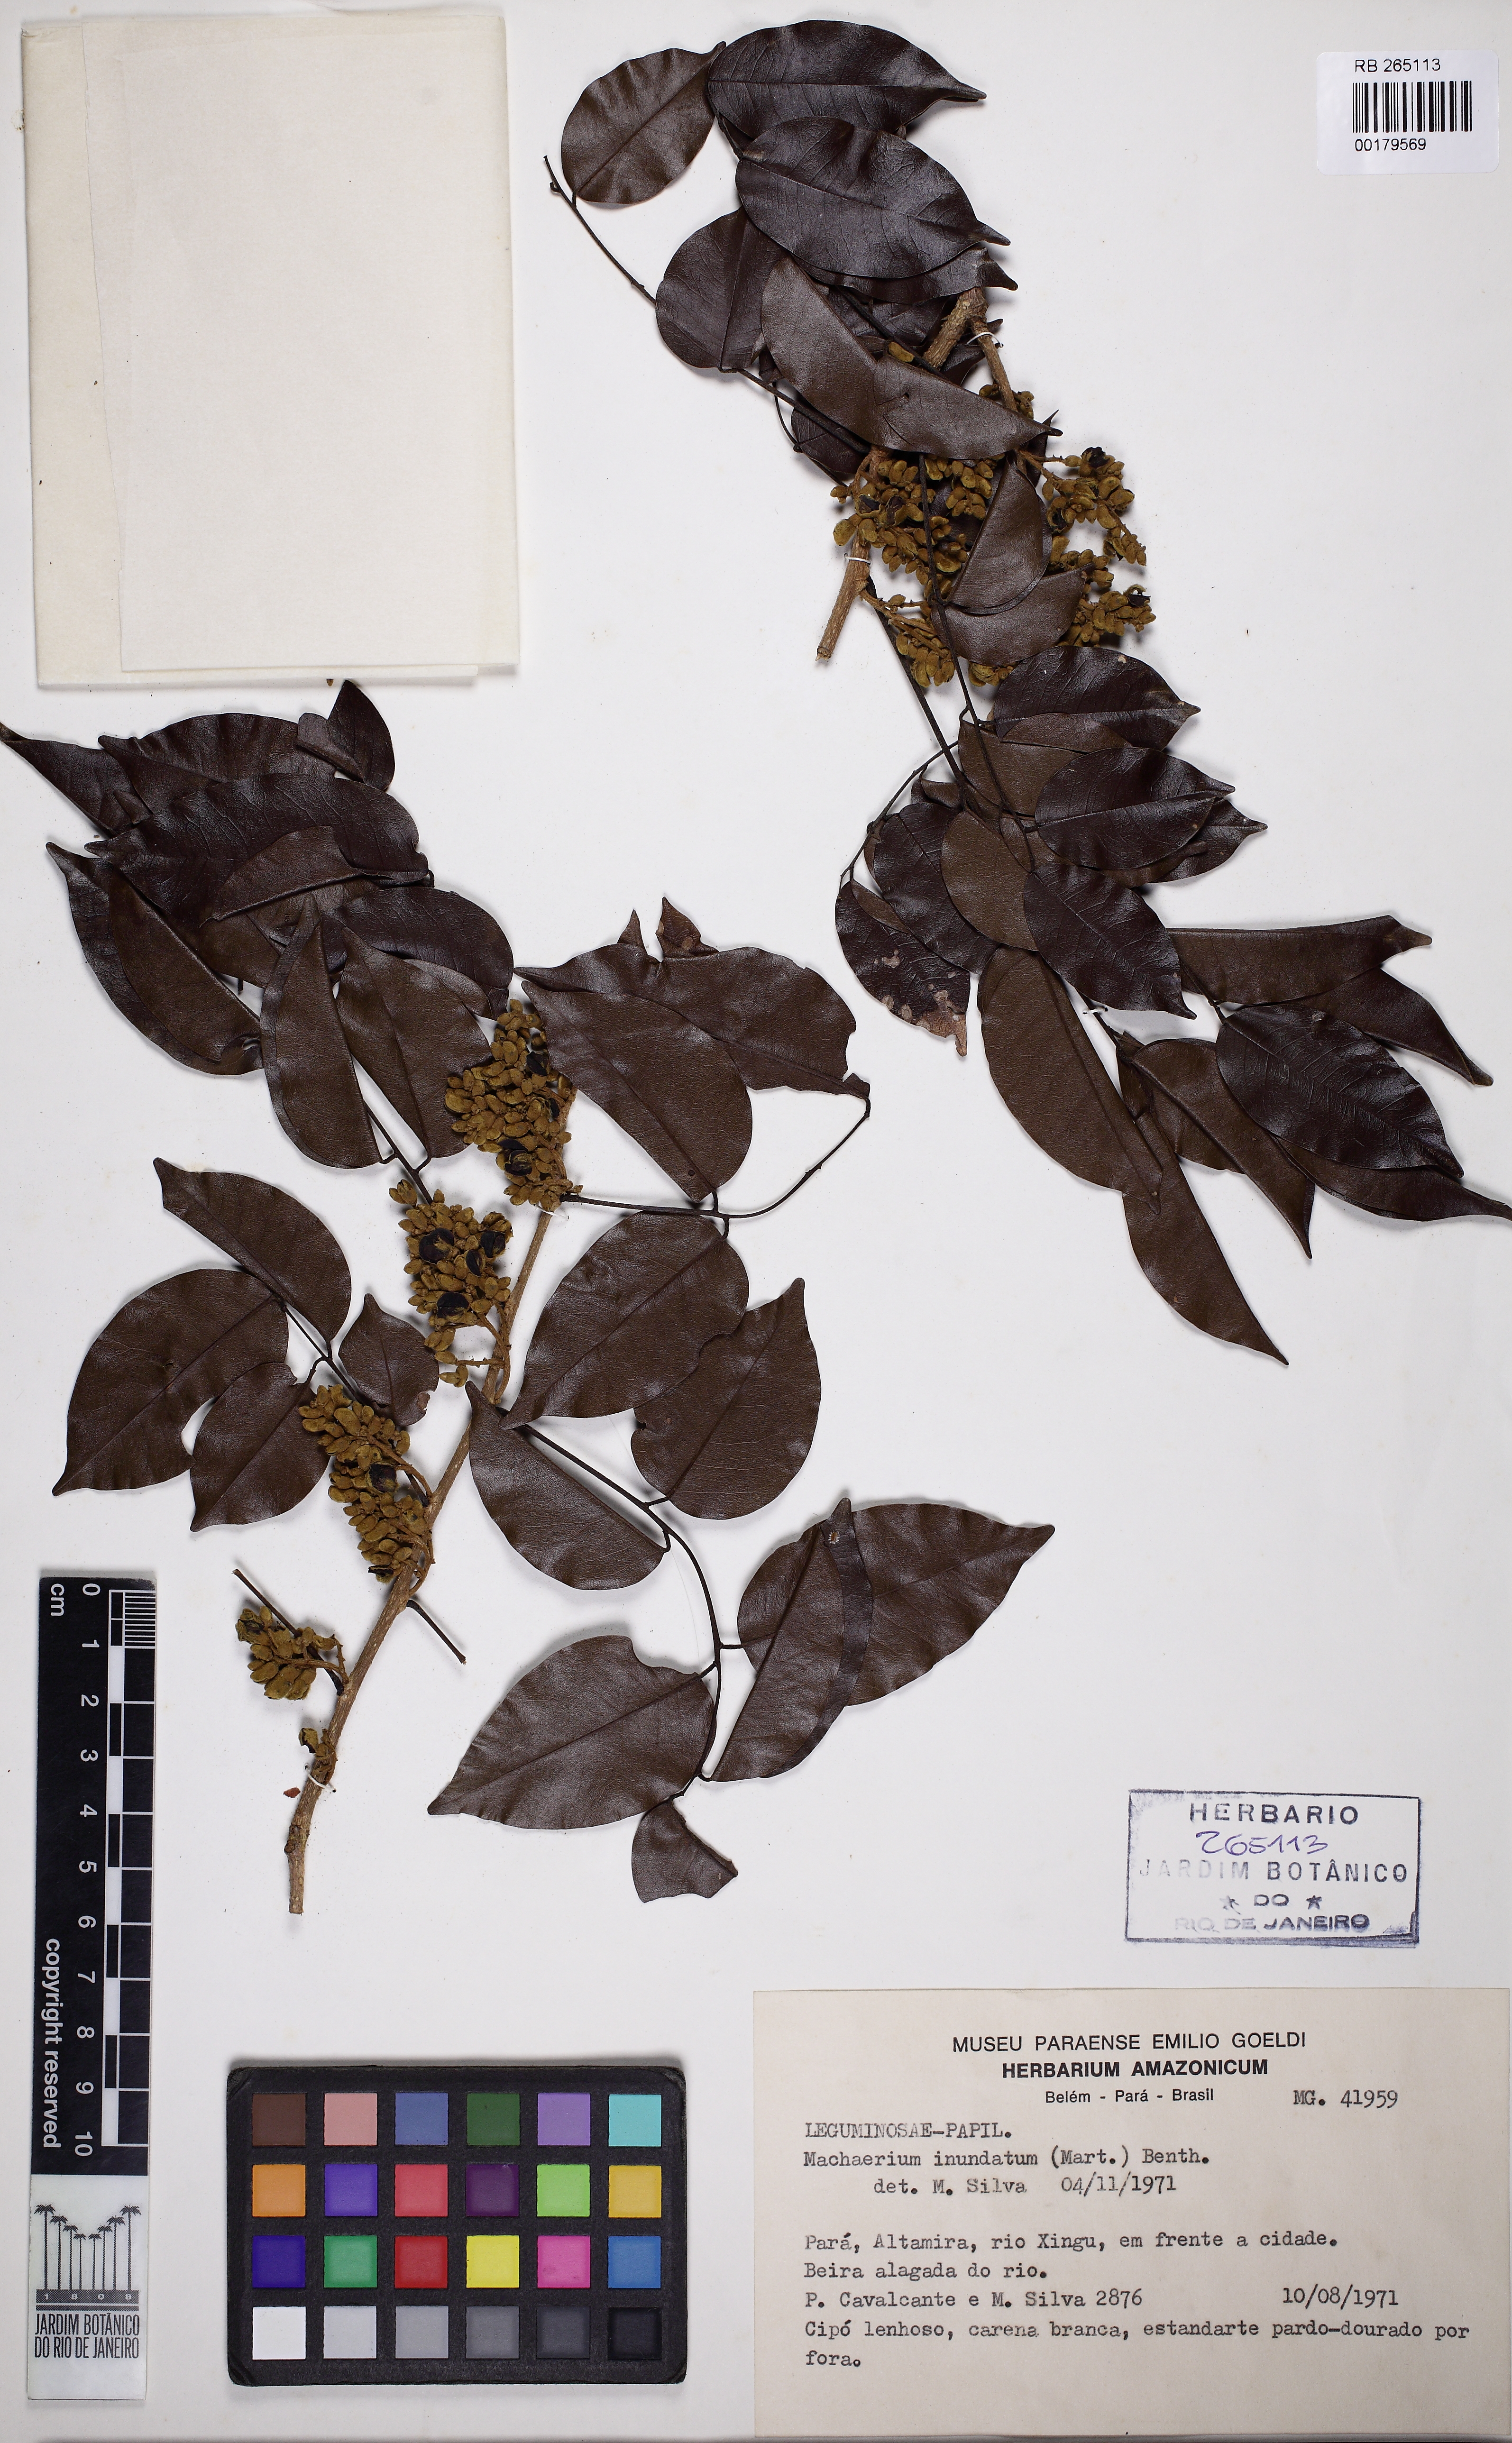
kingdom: Plantae
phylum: Tracheophyta
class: Magnoliopsida
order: Fabales
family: Fabaceae
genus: Machaerium
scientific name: Machaerium inundatum
